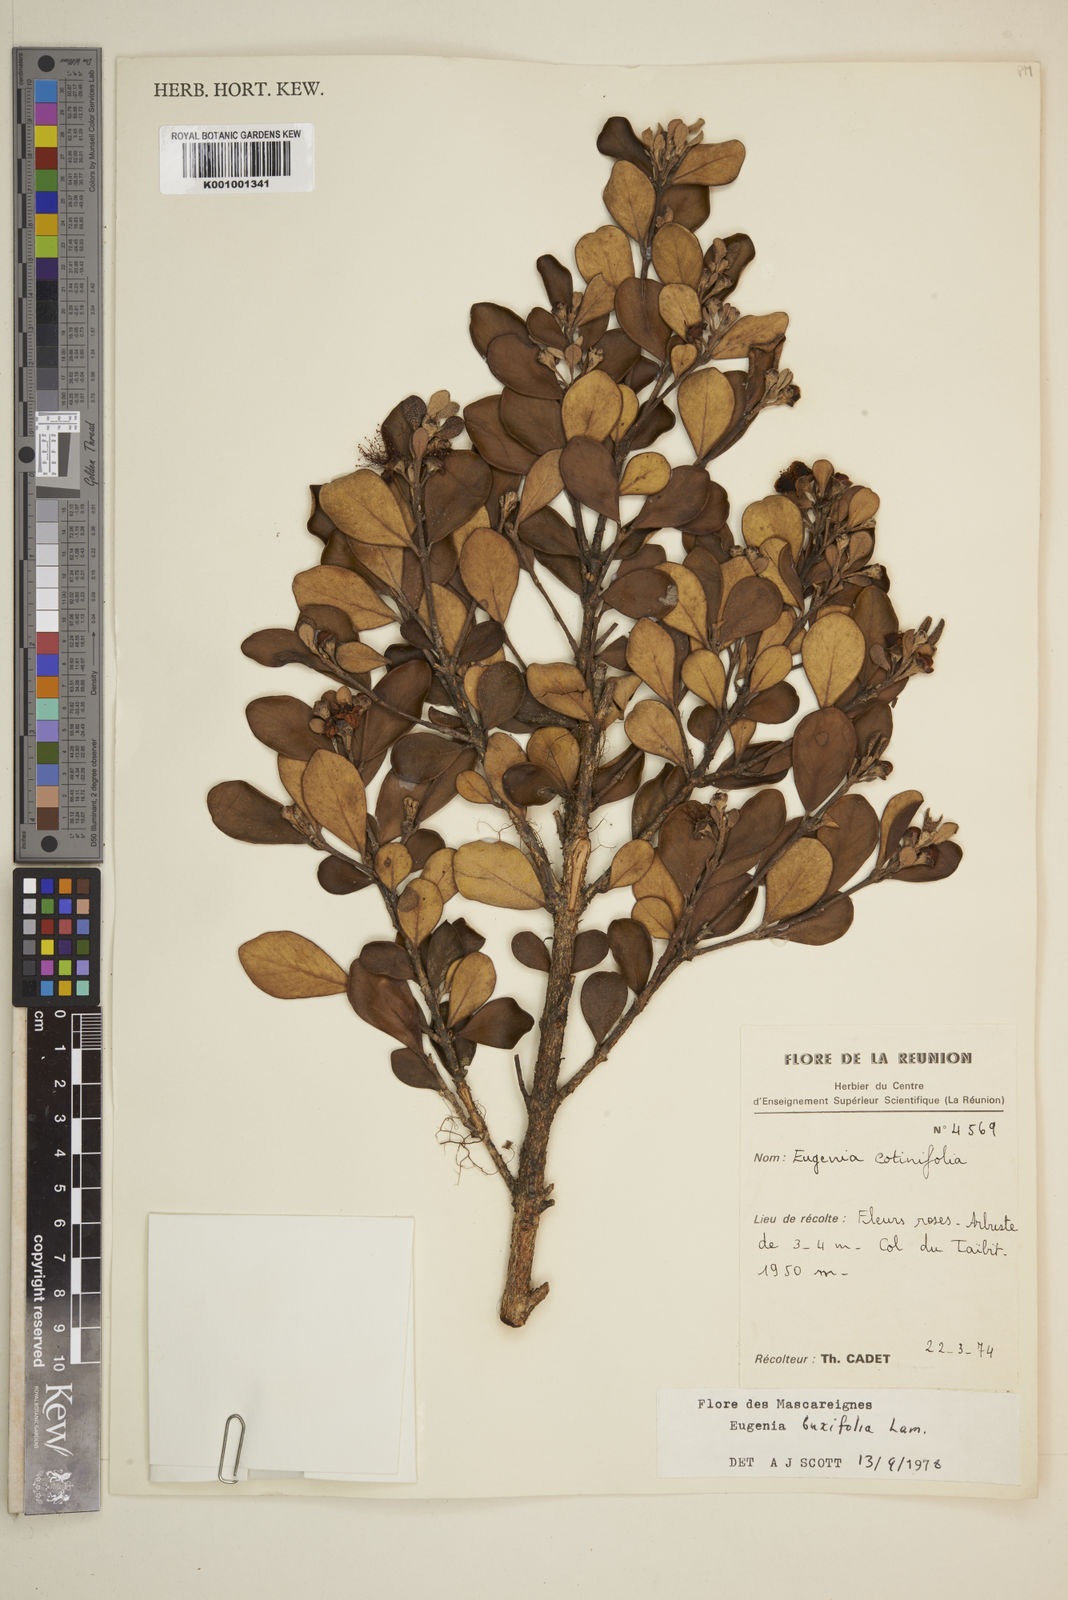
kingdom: Plantae
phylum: Tracheophyta
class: Magnoliopsida
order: Myrtales
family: Myrtaceae
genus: Eugenia
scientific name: Eugenia buxifolia
